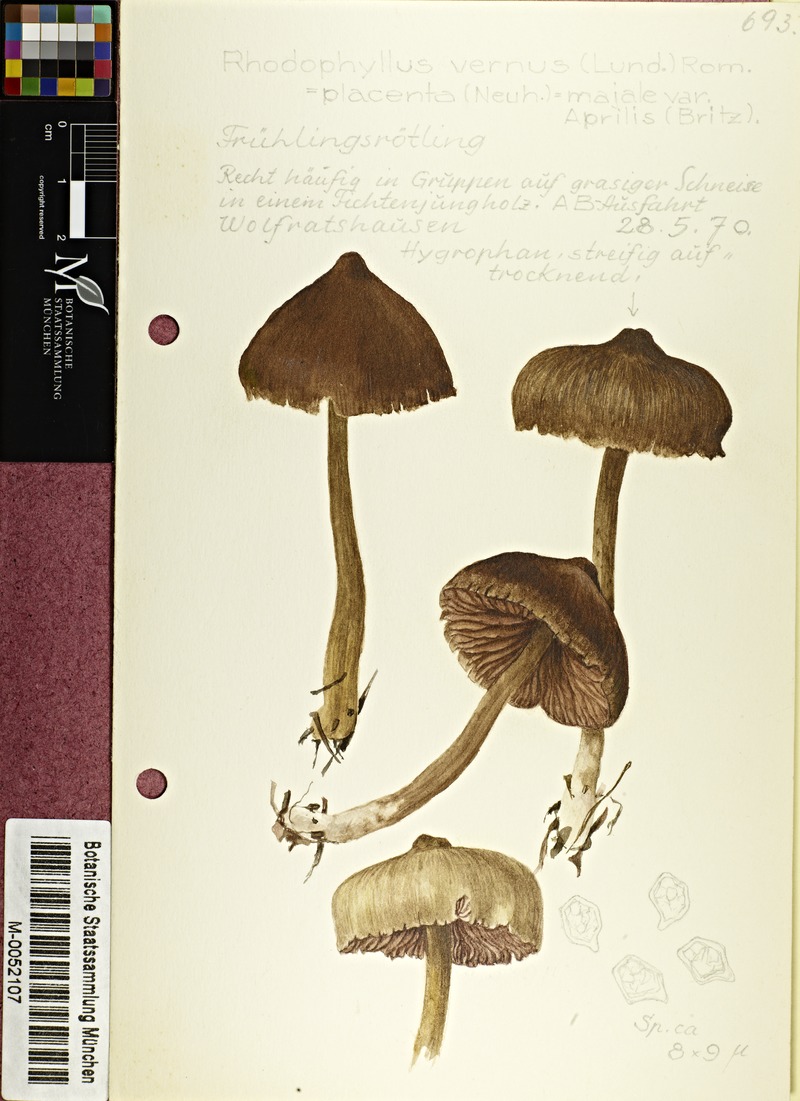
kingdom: Fungi
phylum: Basidiomycota
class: Agaricomycetes
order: Agaricales
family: Entolomataceae
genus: Entoloma
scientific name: Entoloma vernum
